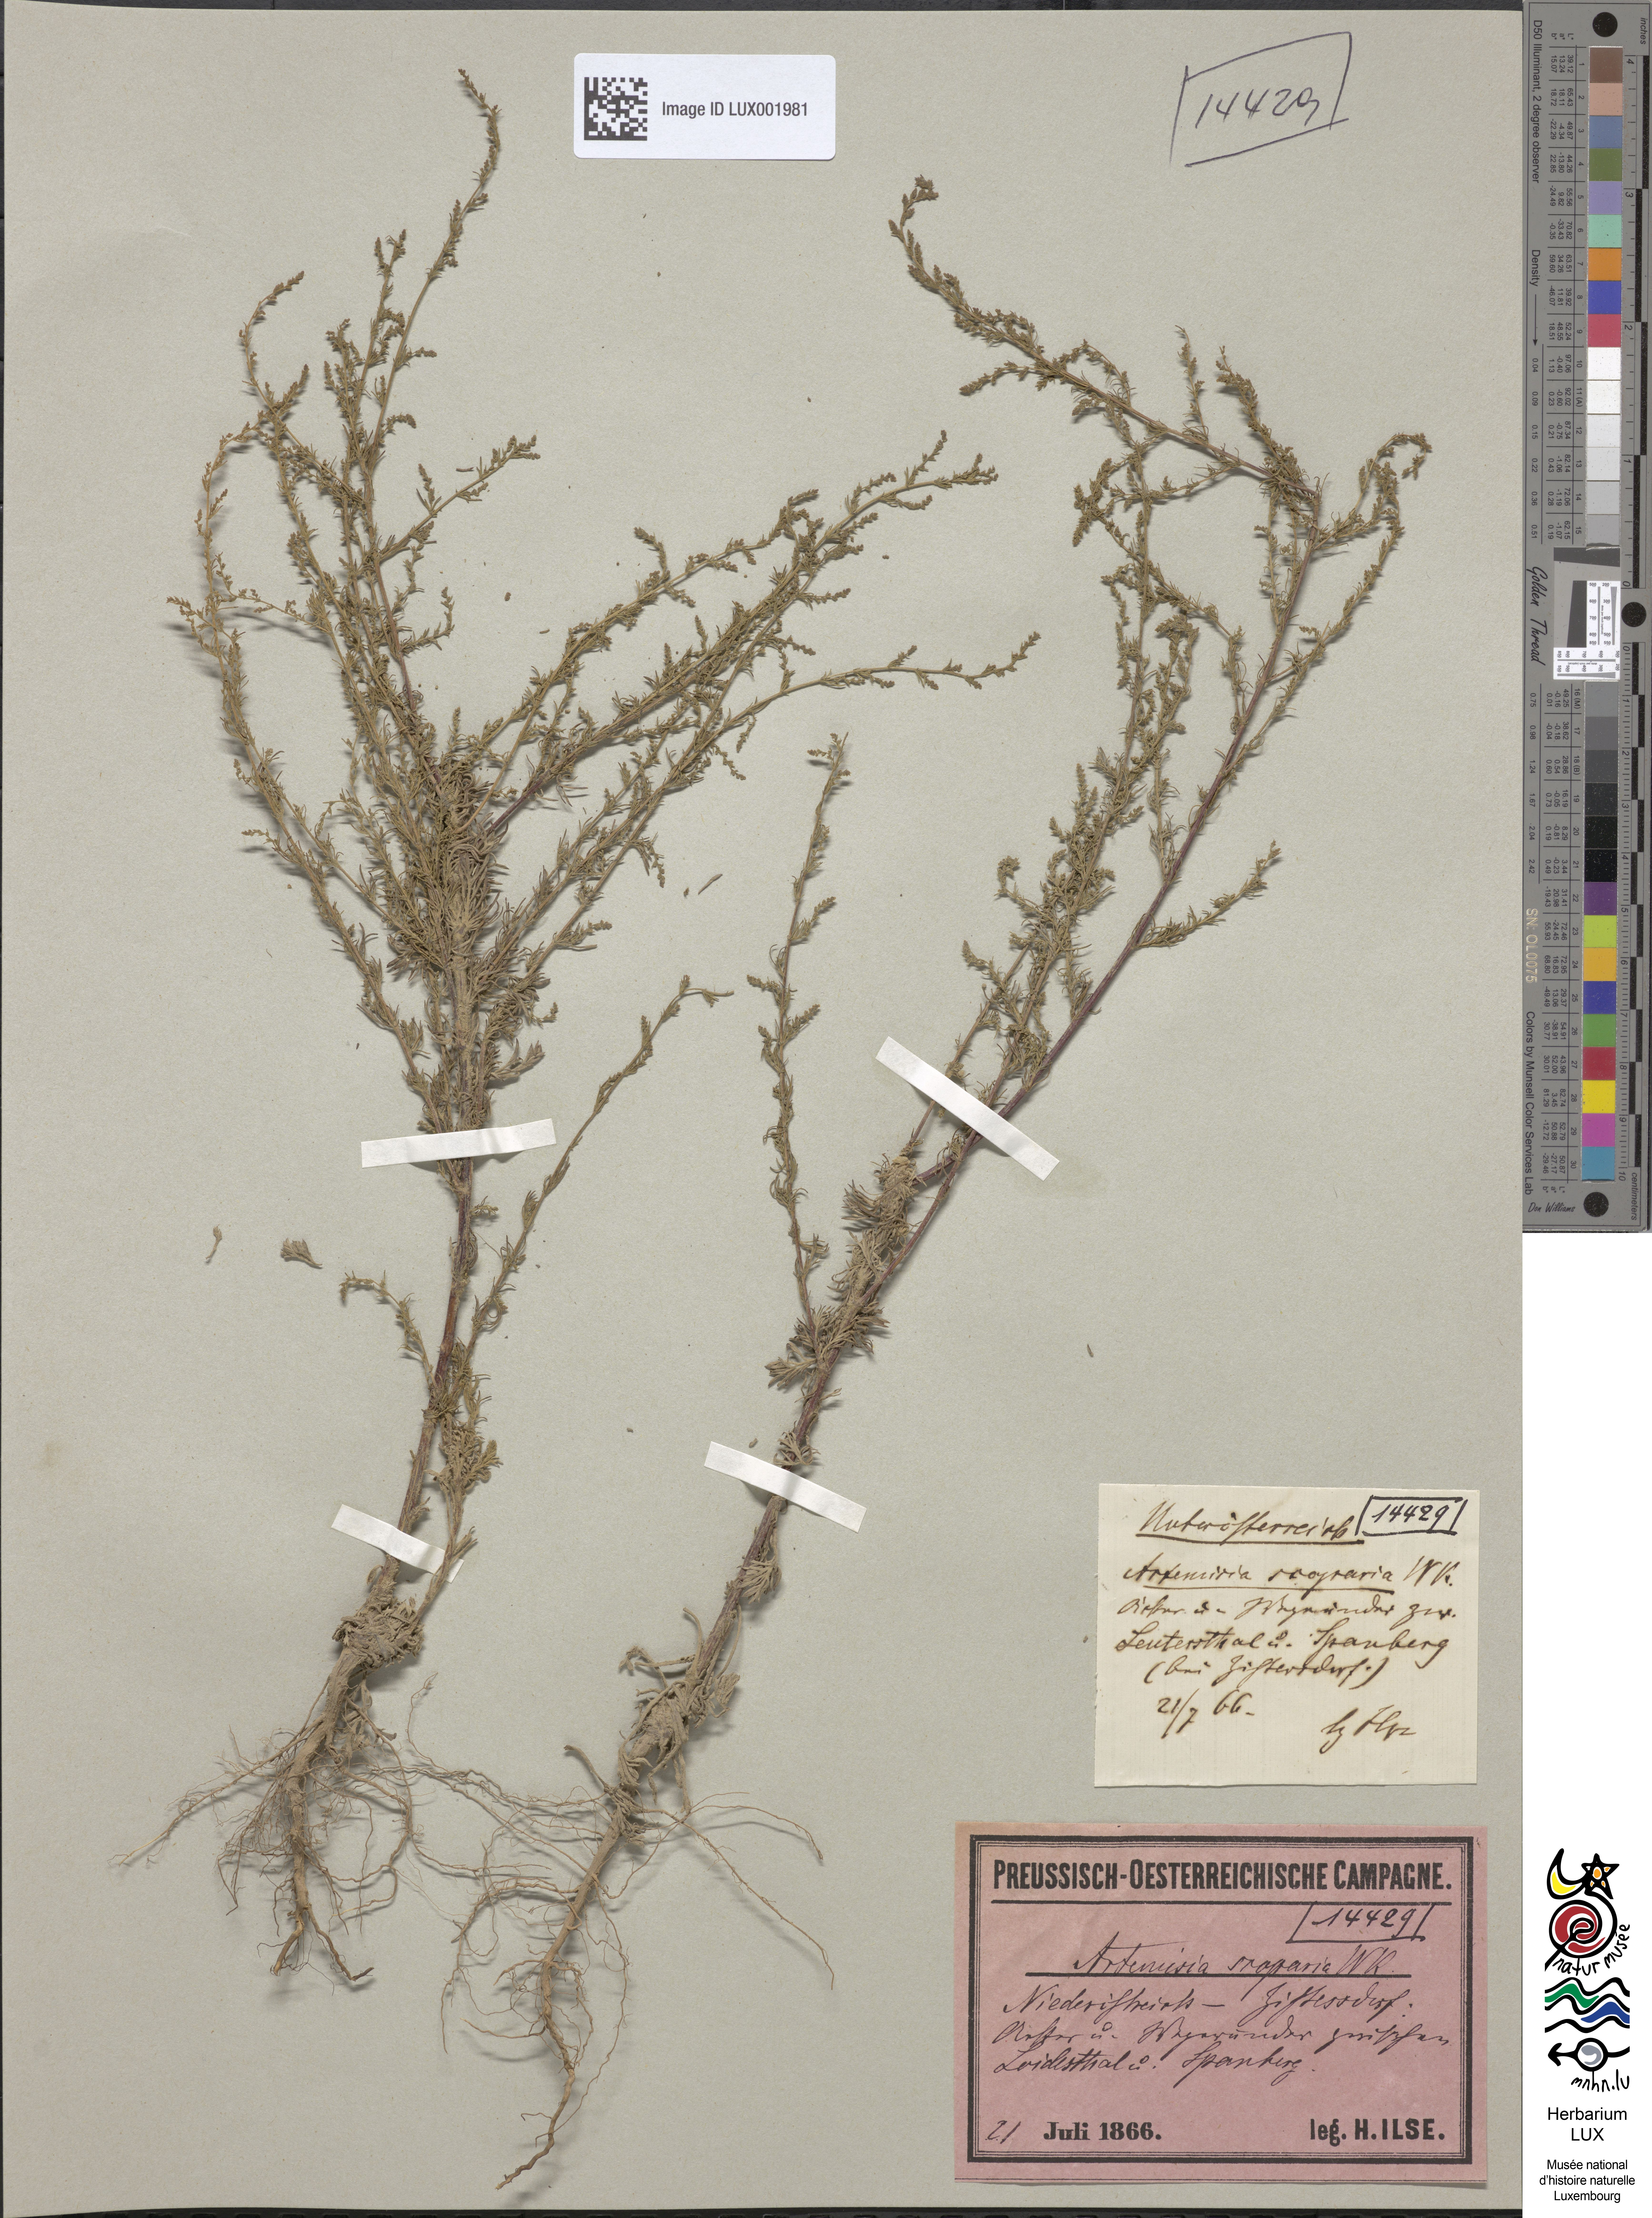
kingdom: Plantae
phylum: Tracheophyta
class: Magnoliopsida
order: Asterales
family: Asteraceae
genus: Artemisia
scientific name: Artemisia scoparia
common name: Redstem wormwood
